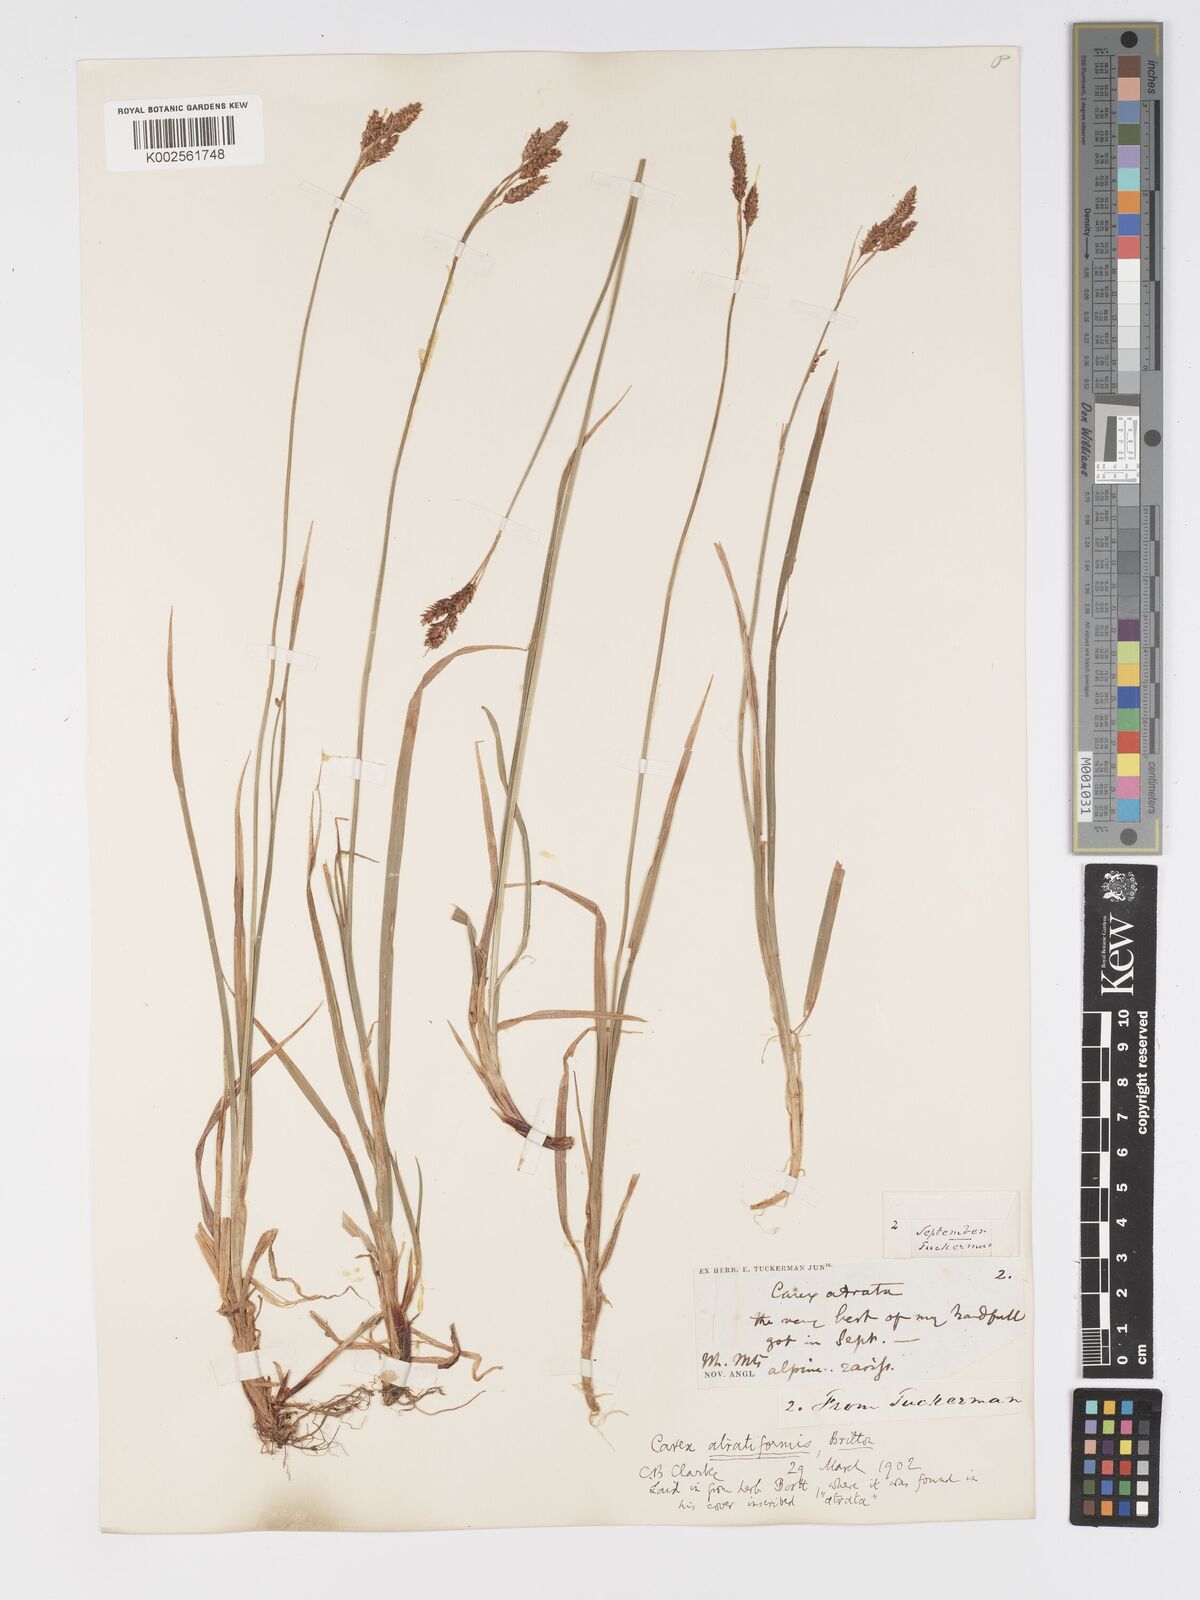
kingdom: Plantae
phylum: Tracheophyta
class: Liliopsida
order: Poales
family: Cyperaceae
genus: Carex
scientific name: Carex atratiformis
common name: Black sedge
